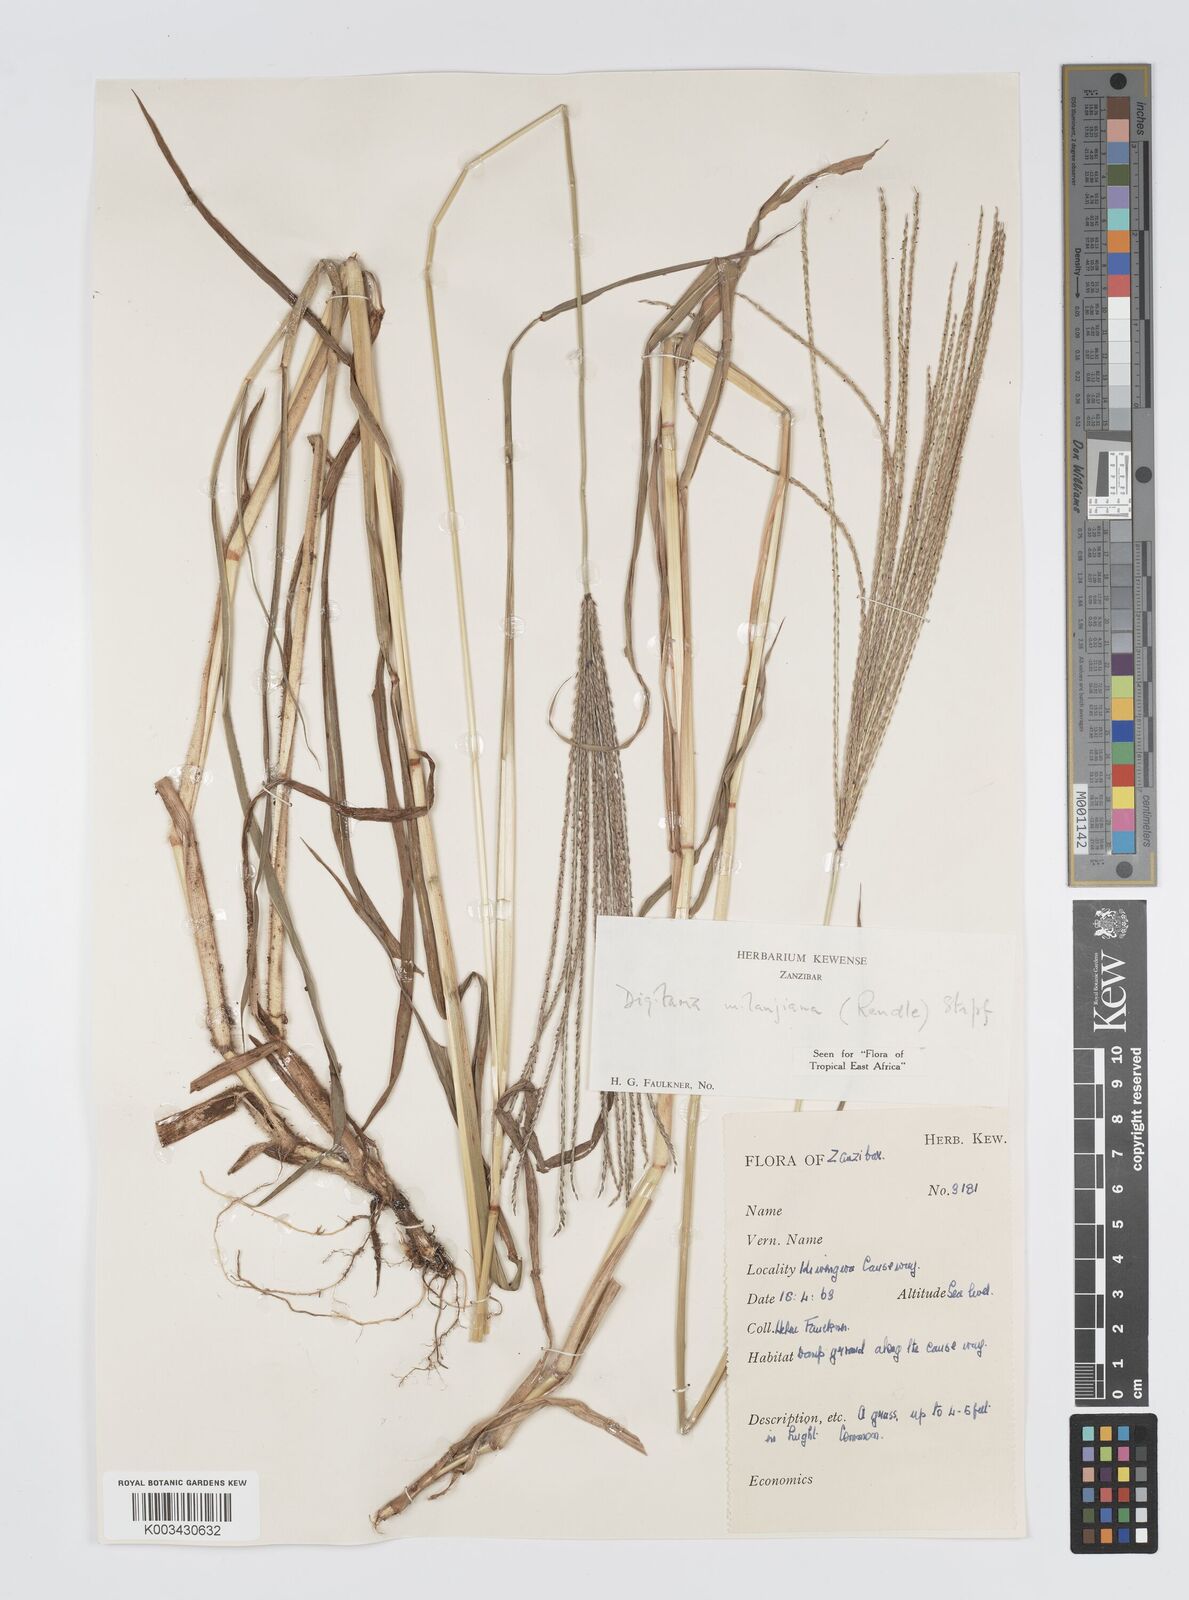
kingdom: Plantae
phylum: Tracheophyta
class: Liliopsida
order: Poales
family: Poaceae
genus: Digitaria
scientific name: Digitaria milanjiana
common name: Madagascar crabgrass
